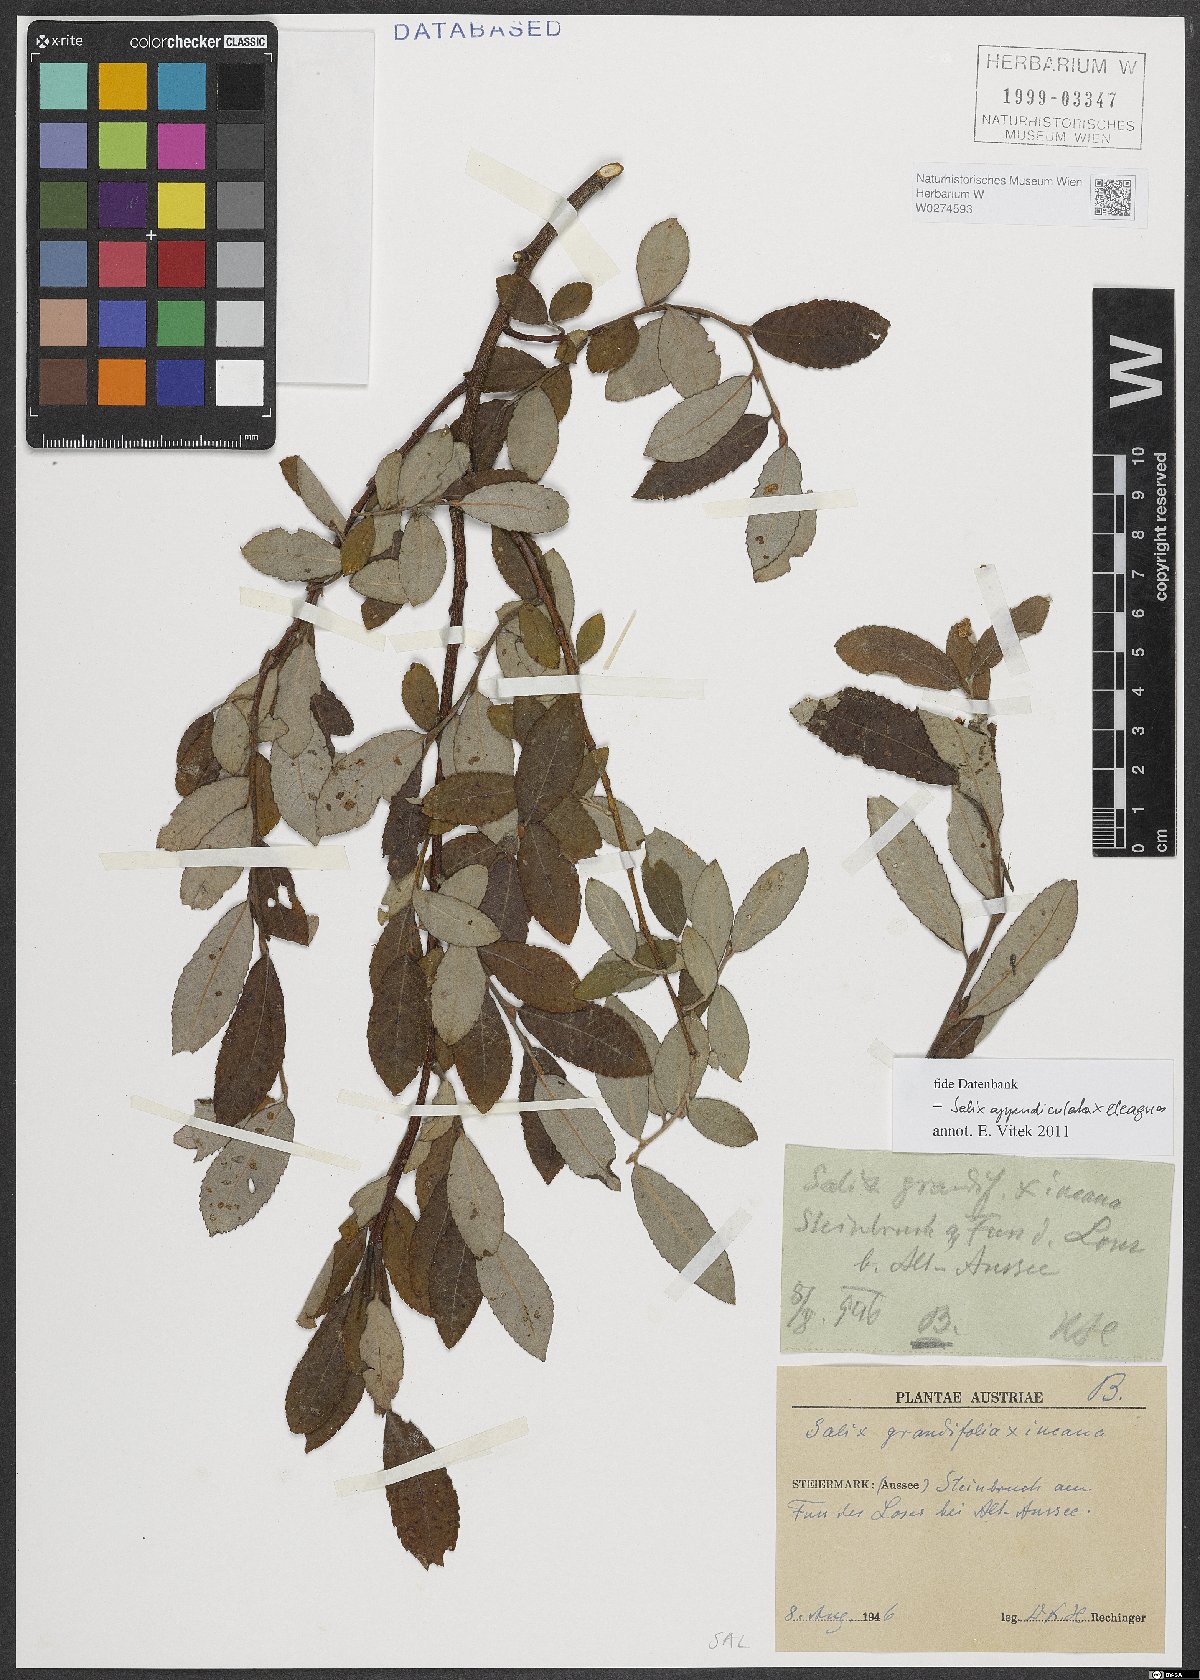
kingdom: Plantae
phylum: Tracheophyta
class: Magnoliopsida
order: Malpighiales
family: Salicaceae
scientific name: Salicaceae
